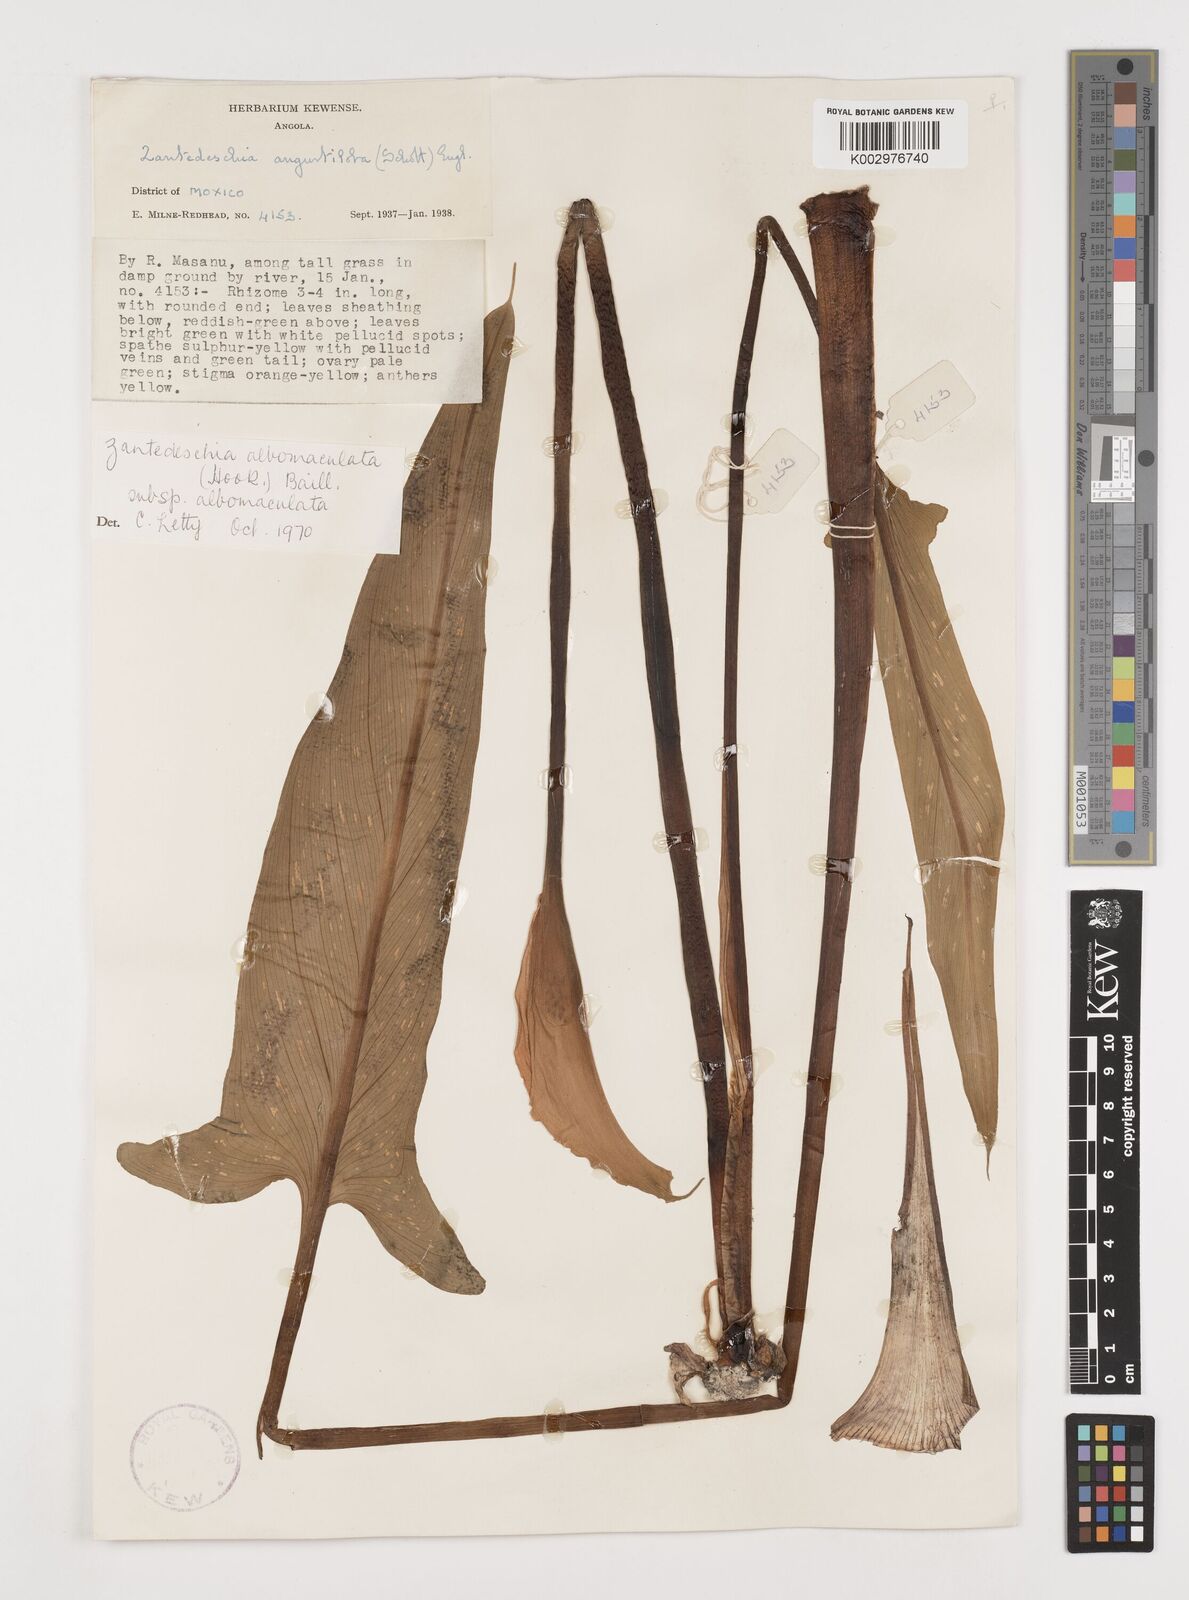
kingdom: Plantae
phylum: Tracheophyta
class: Liliopsida
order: Alismatales
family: Araceae
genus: Zantedeschia
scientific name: Zantedeschia albomaculata
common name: Spotted calla lily
